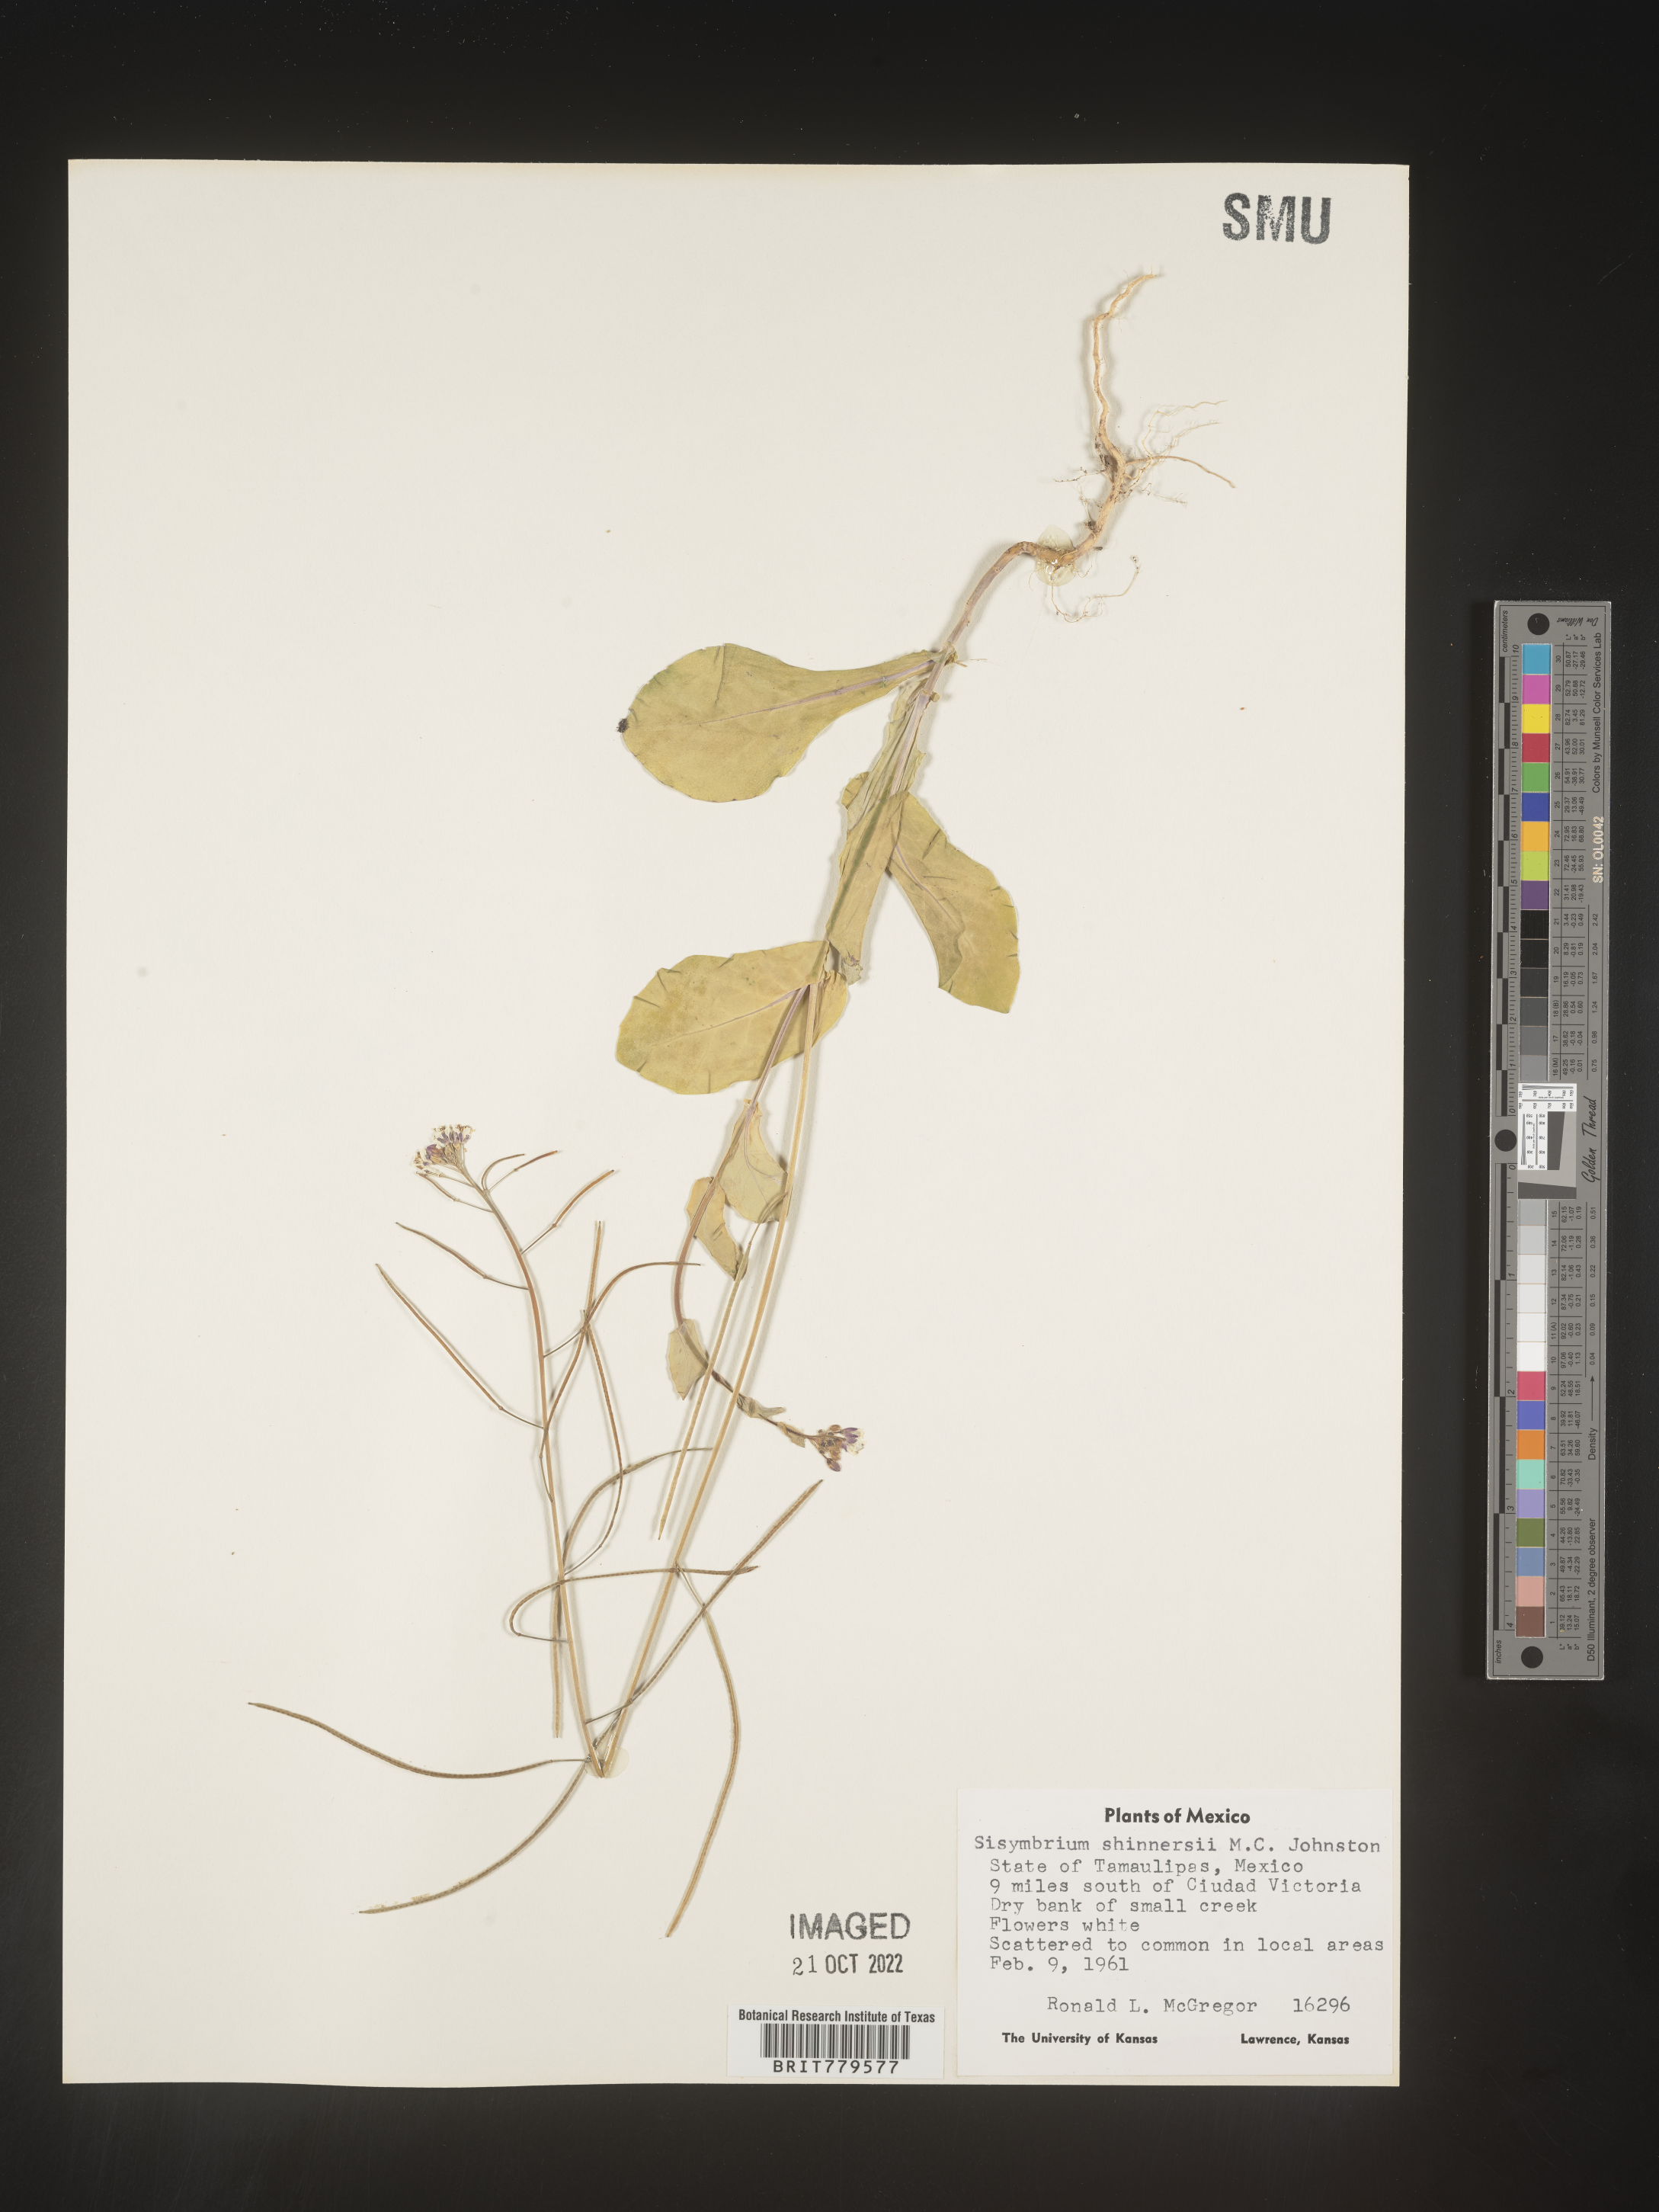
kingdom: Plantae
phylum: Tracheophyta
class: Magnoliopsida
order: Brassicales
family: Brassicaceae
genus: Sisymbrium
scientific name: Sisymbrium
